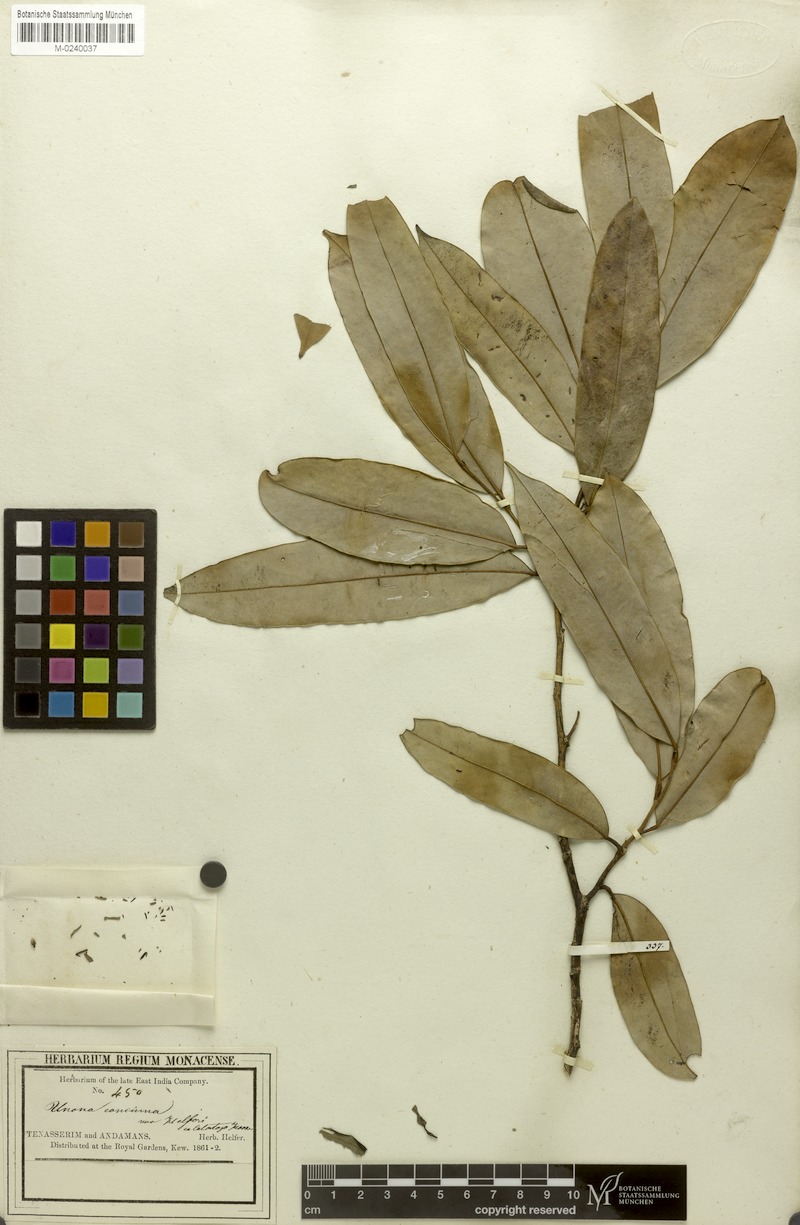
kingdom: Plantae
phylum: Tracheophyta
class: Magnoliopsida
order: Magnoliales
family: Annonaceae
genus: Marsypopetalum
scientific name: Marsypopetalum modestum
